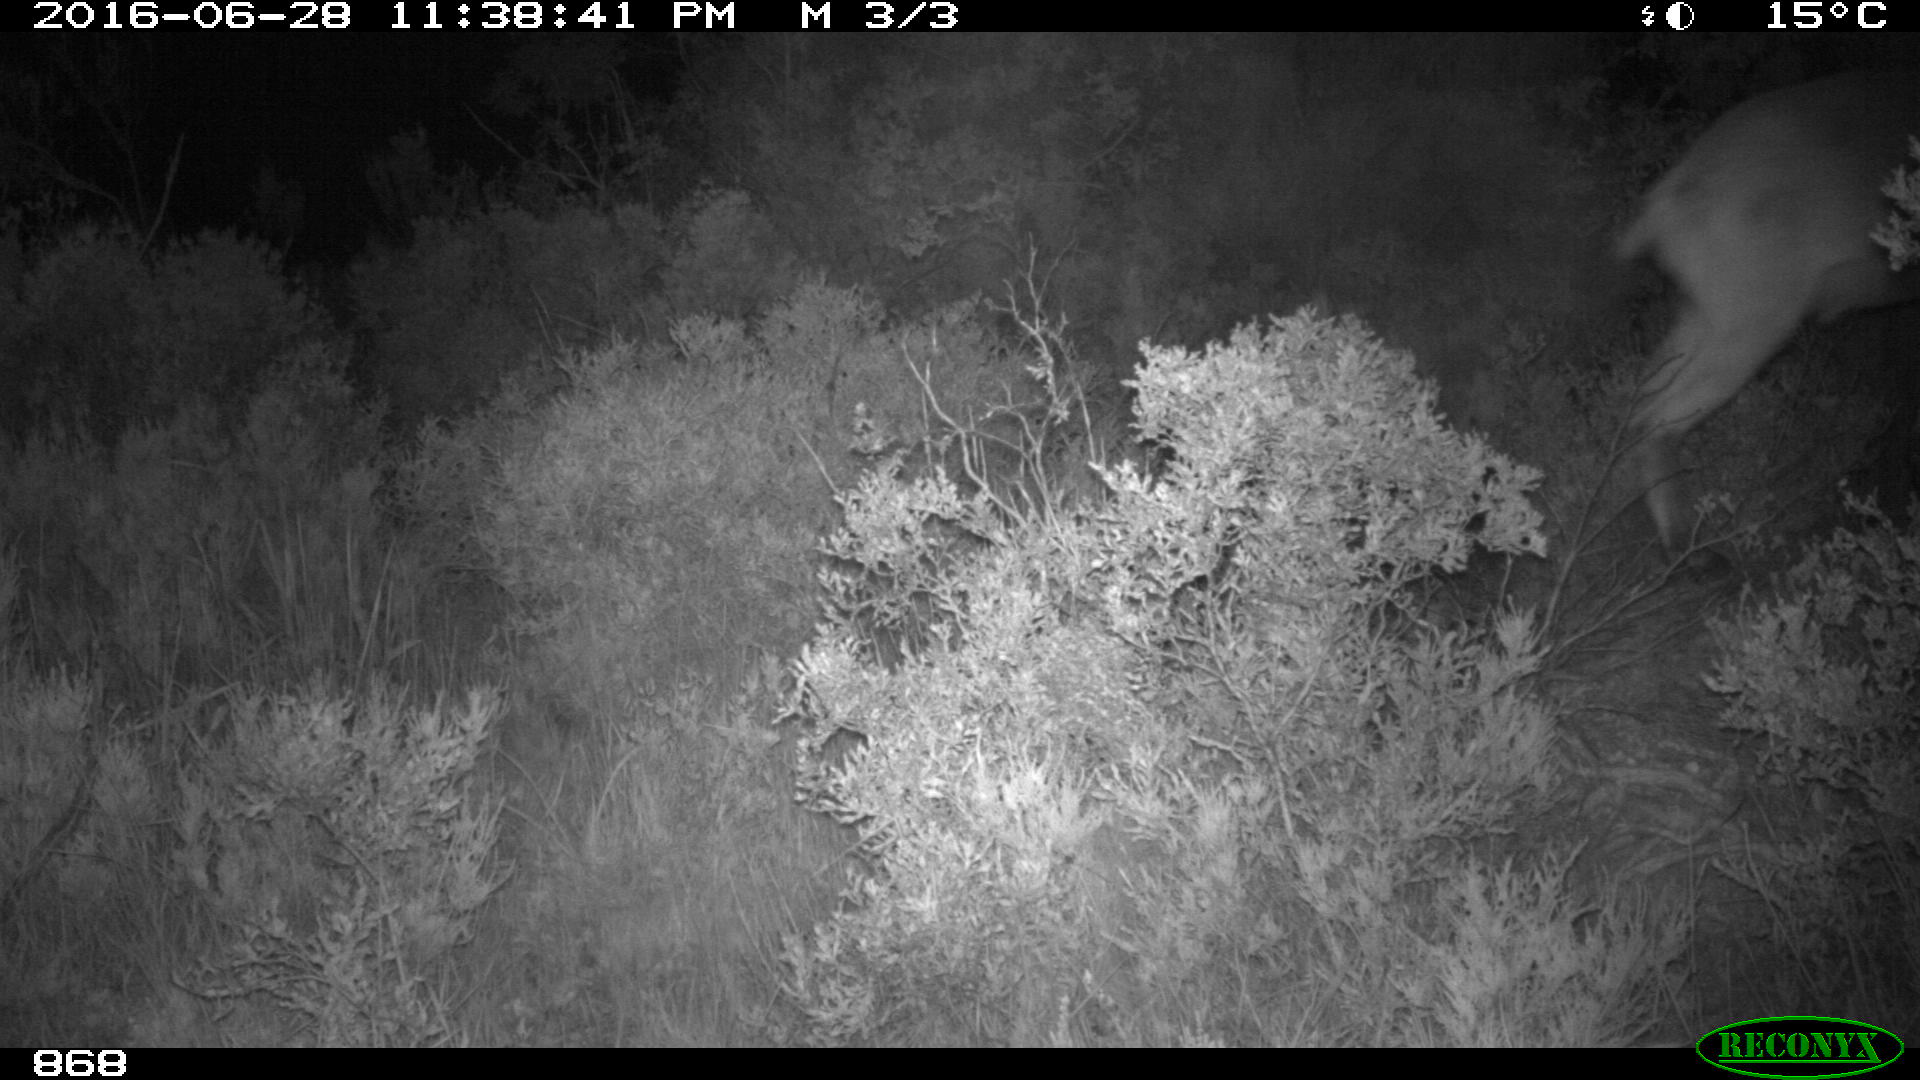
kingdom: Animalia
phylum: Chordata
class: Mammalia
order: Artiodactyla
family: Bovidae
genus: Capra
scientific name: Capra pyrenaica
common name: Spanish ibex
